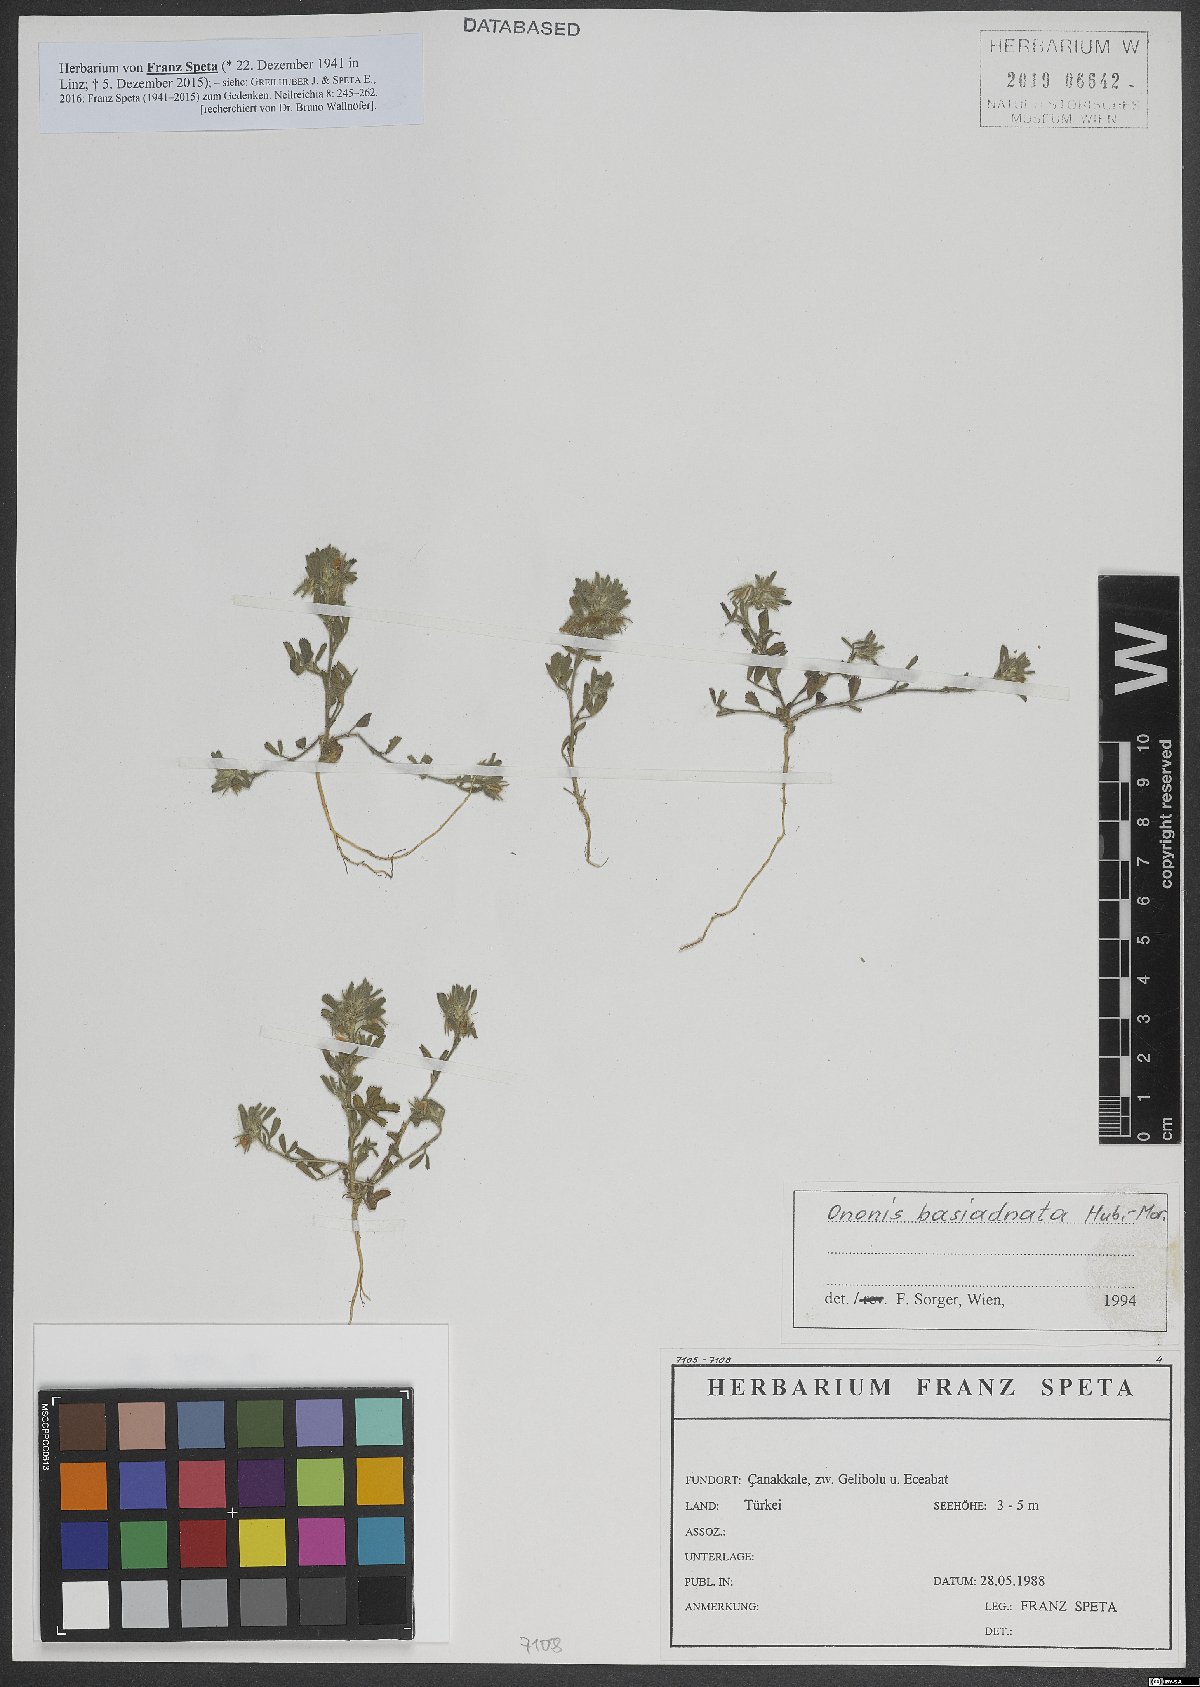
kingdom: Plantae
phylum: Tracheophyta
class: Magnoliopsida
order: Fabales
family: Fabaceae
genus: Ononis
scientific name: Ononis basiadnata
